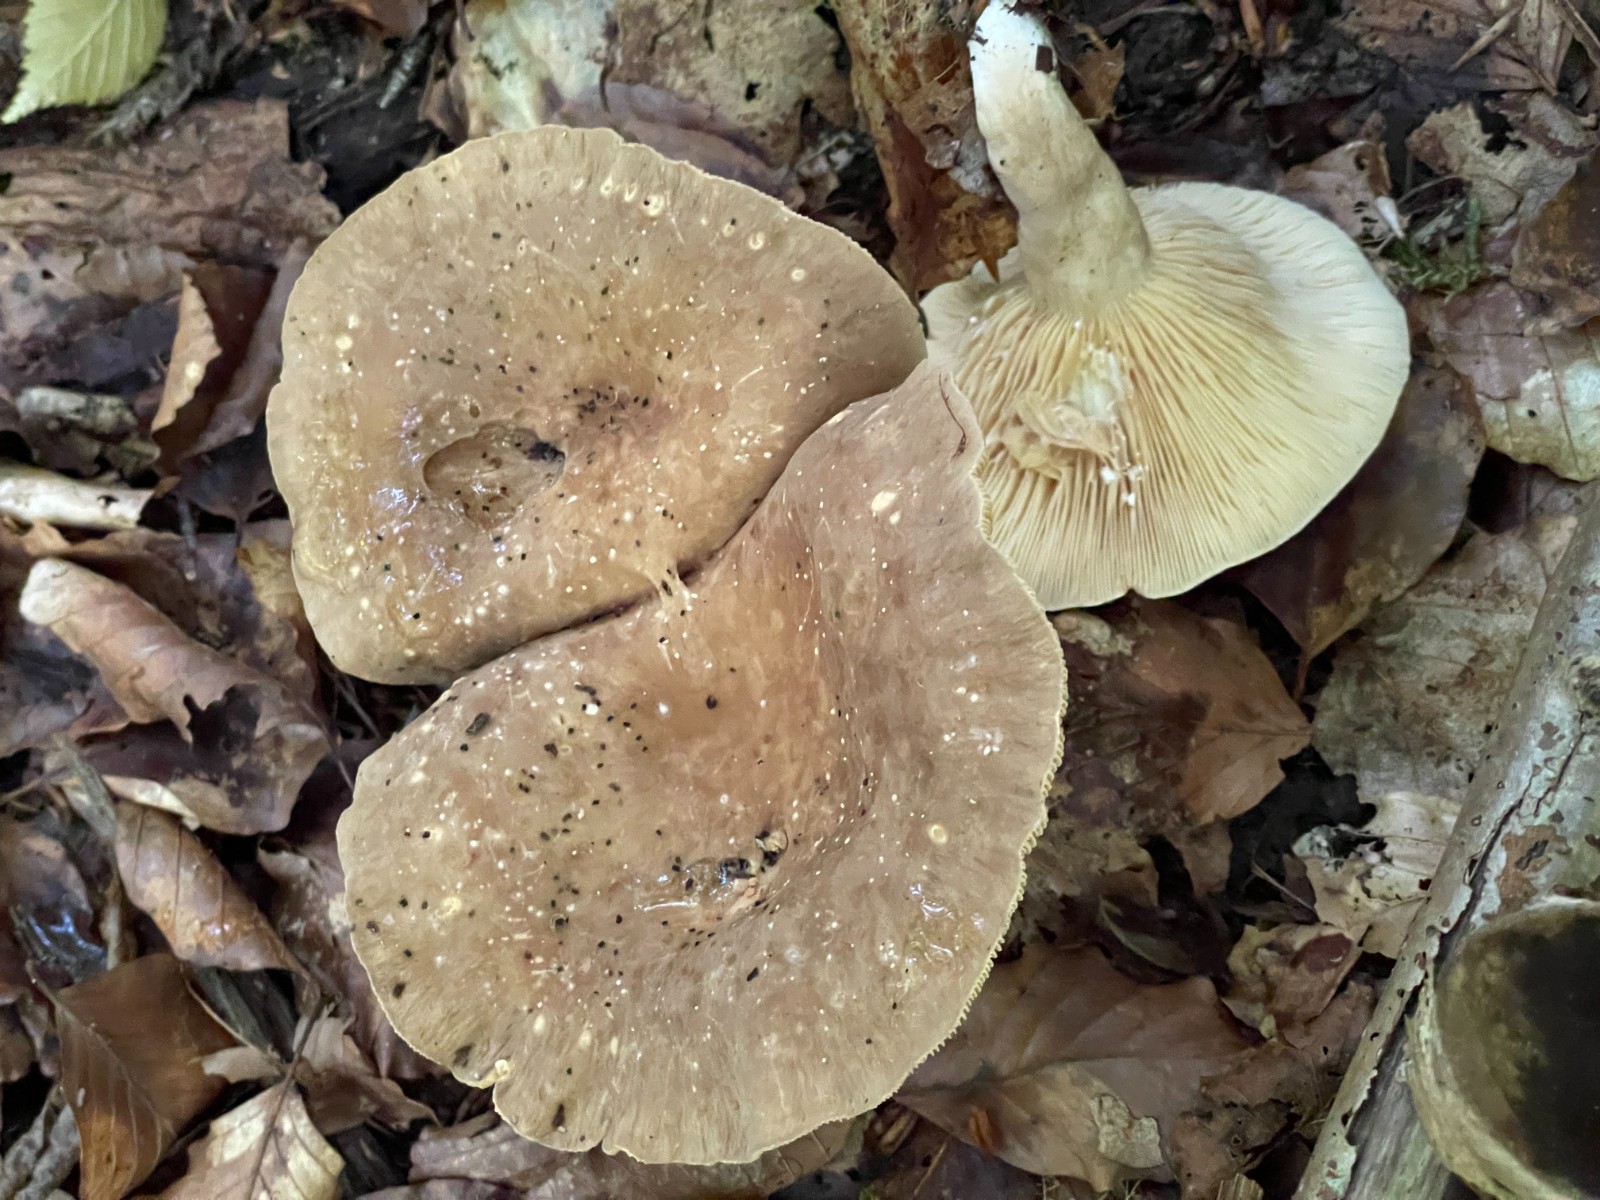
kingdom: Fungi
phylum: Basidiomycota
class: Agaricomycetes
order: Russulales
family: Russulaceae
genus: Lactarius
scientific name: Lactarius
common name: mælkehat
